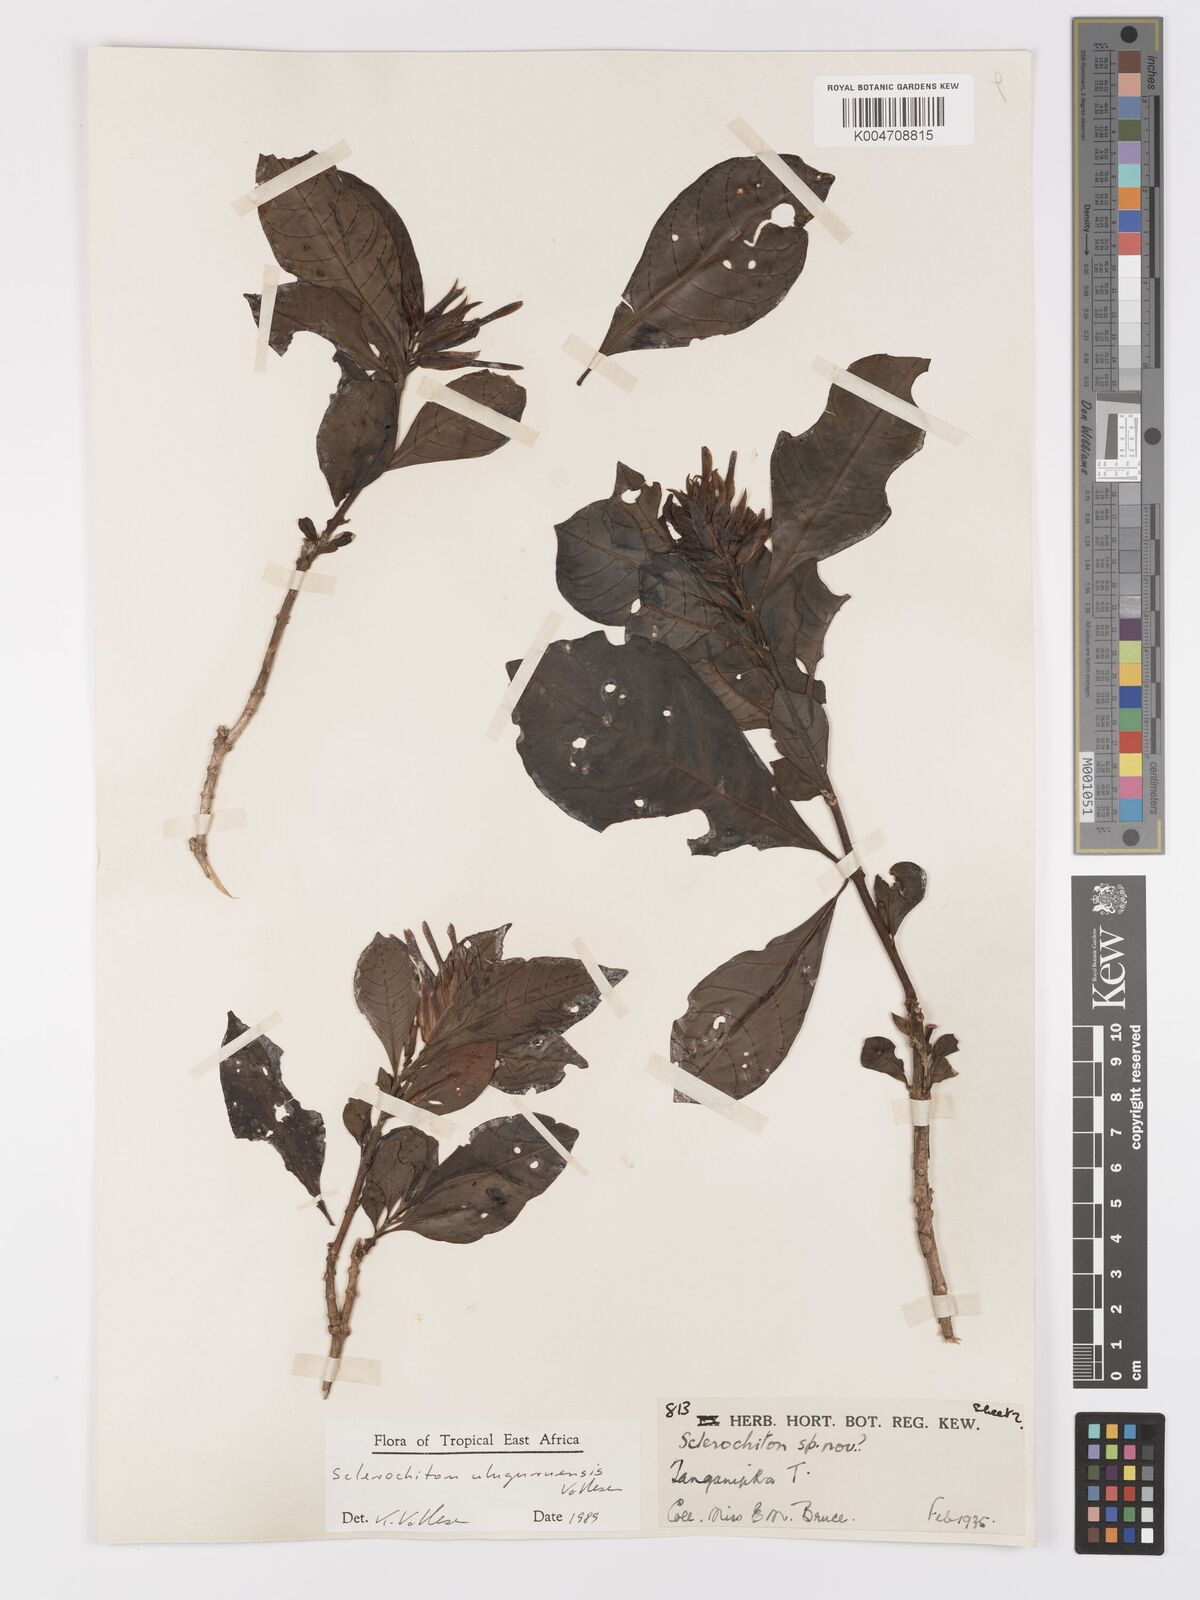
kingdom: Plantae
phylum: Tracheophyta
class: Magnoliopsida
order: Lamiales
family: Acanthaceae
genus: Sclerochiton
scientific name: Sclerochiton uluguruensis
